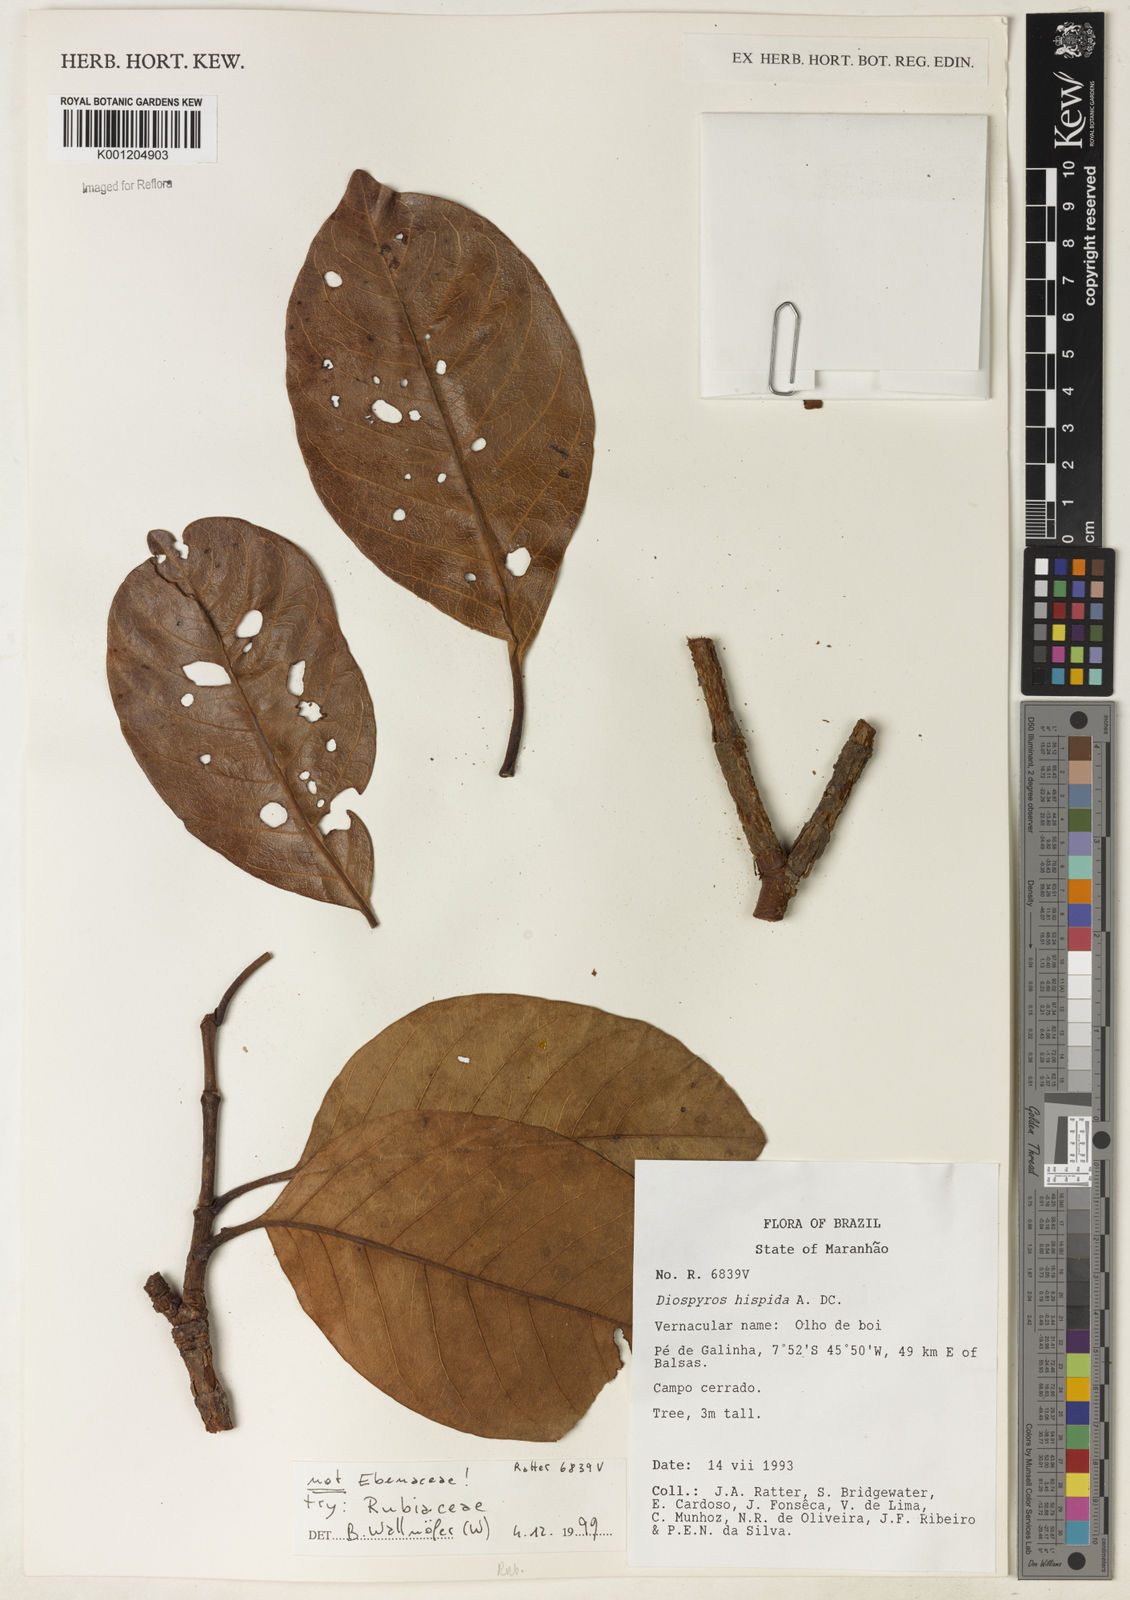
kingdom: Plantae
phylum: Tracheophyta
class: Magnoliopsida
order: Gentianales
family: Rubiaceae
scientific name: Rubiaceae
